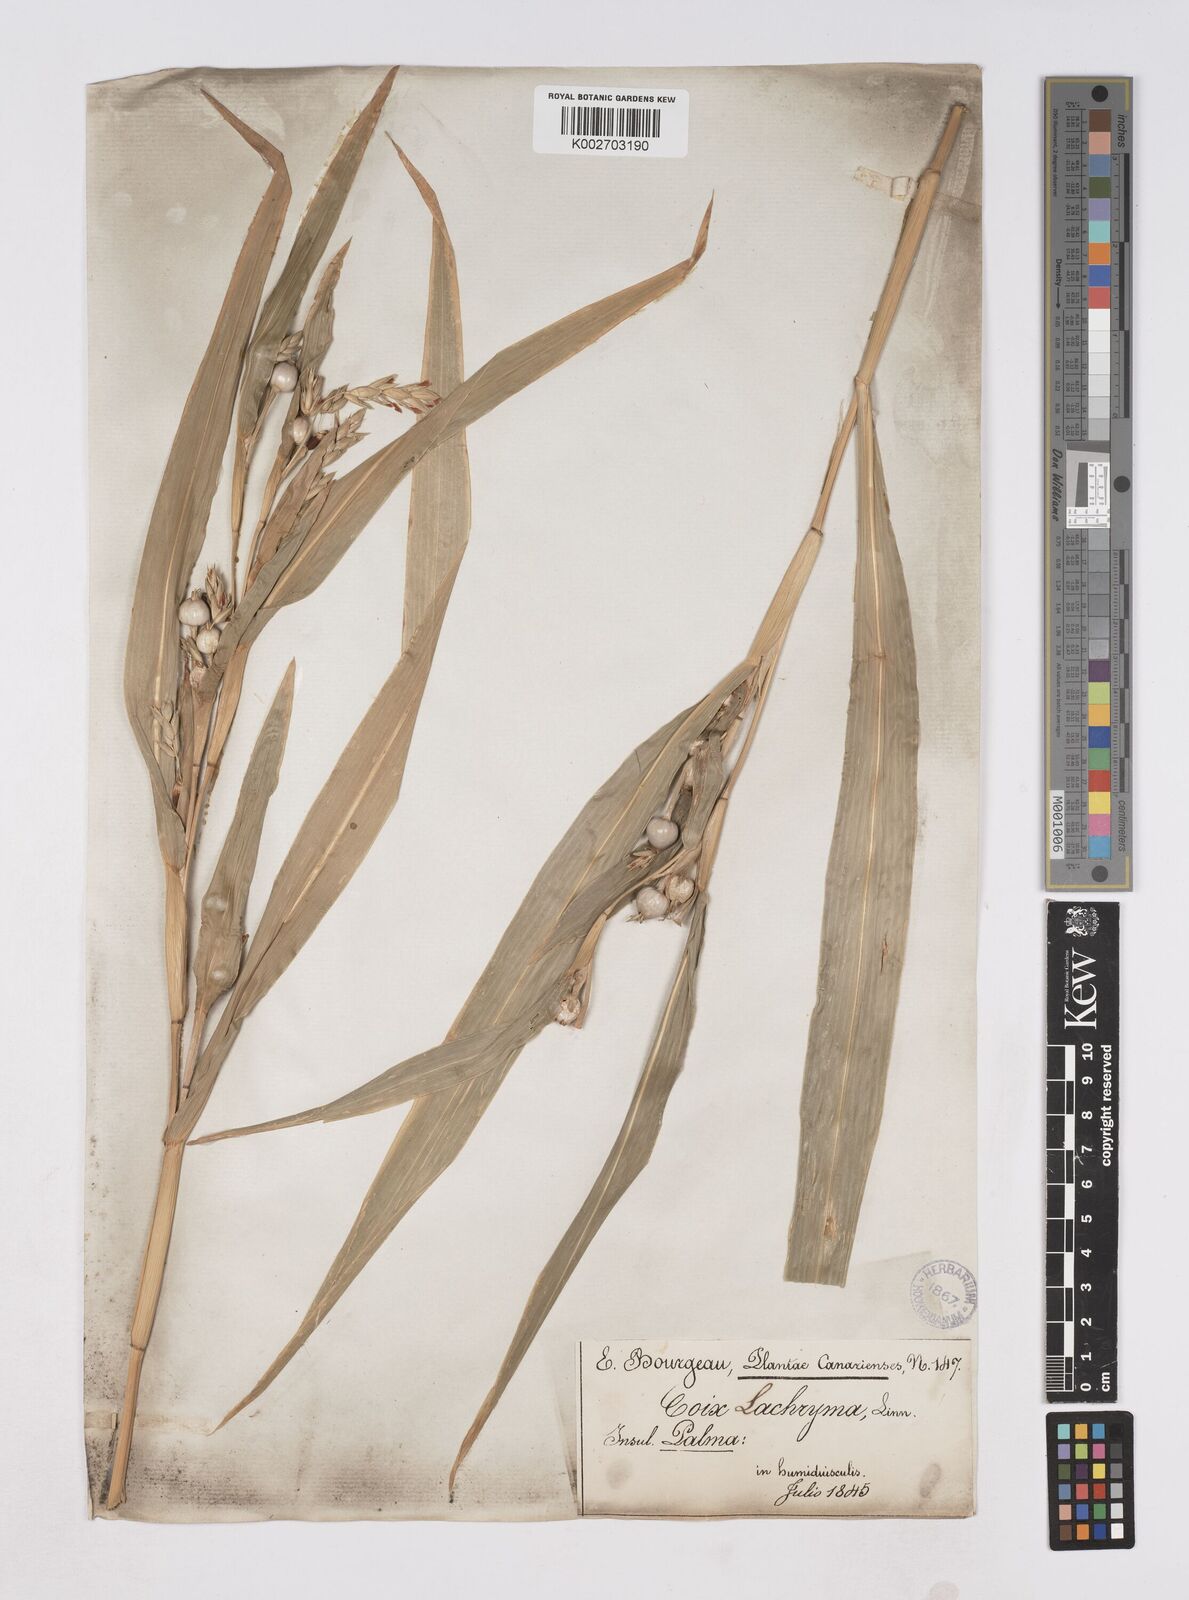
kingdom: Plantae
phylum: Tracheophyta
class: Liliopsida
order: Poales
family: Poaceae
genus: Coix
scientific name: Coix lacryma-jobi
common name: Job's tears
